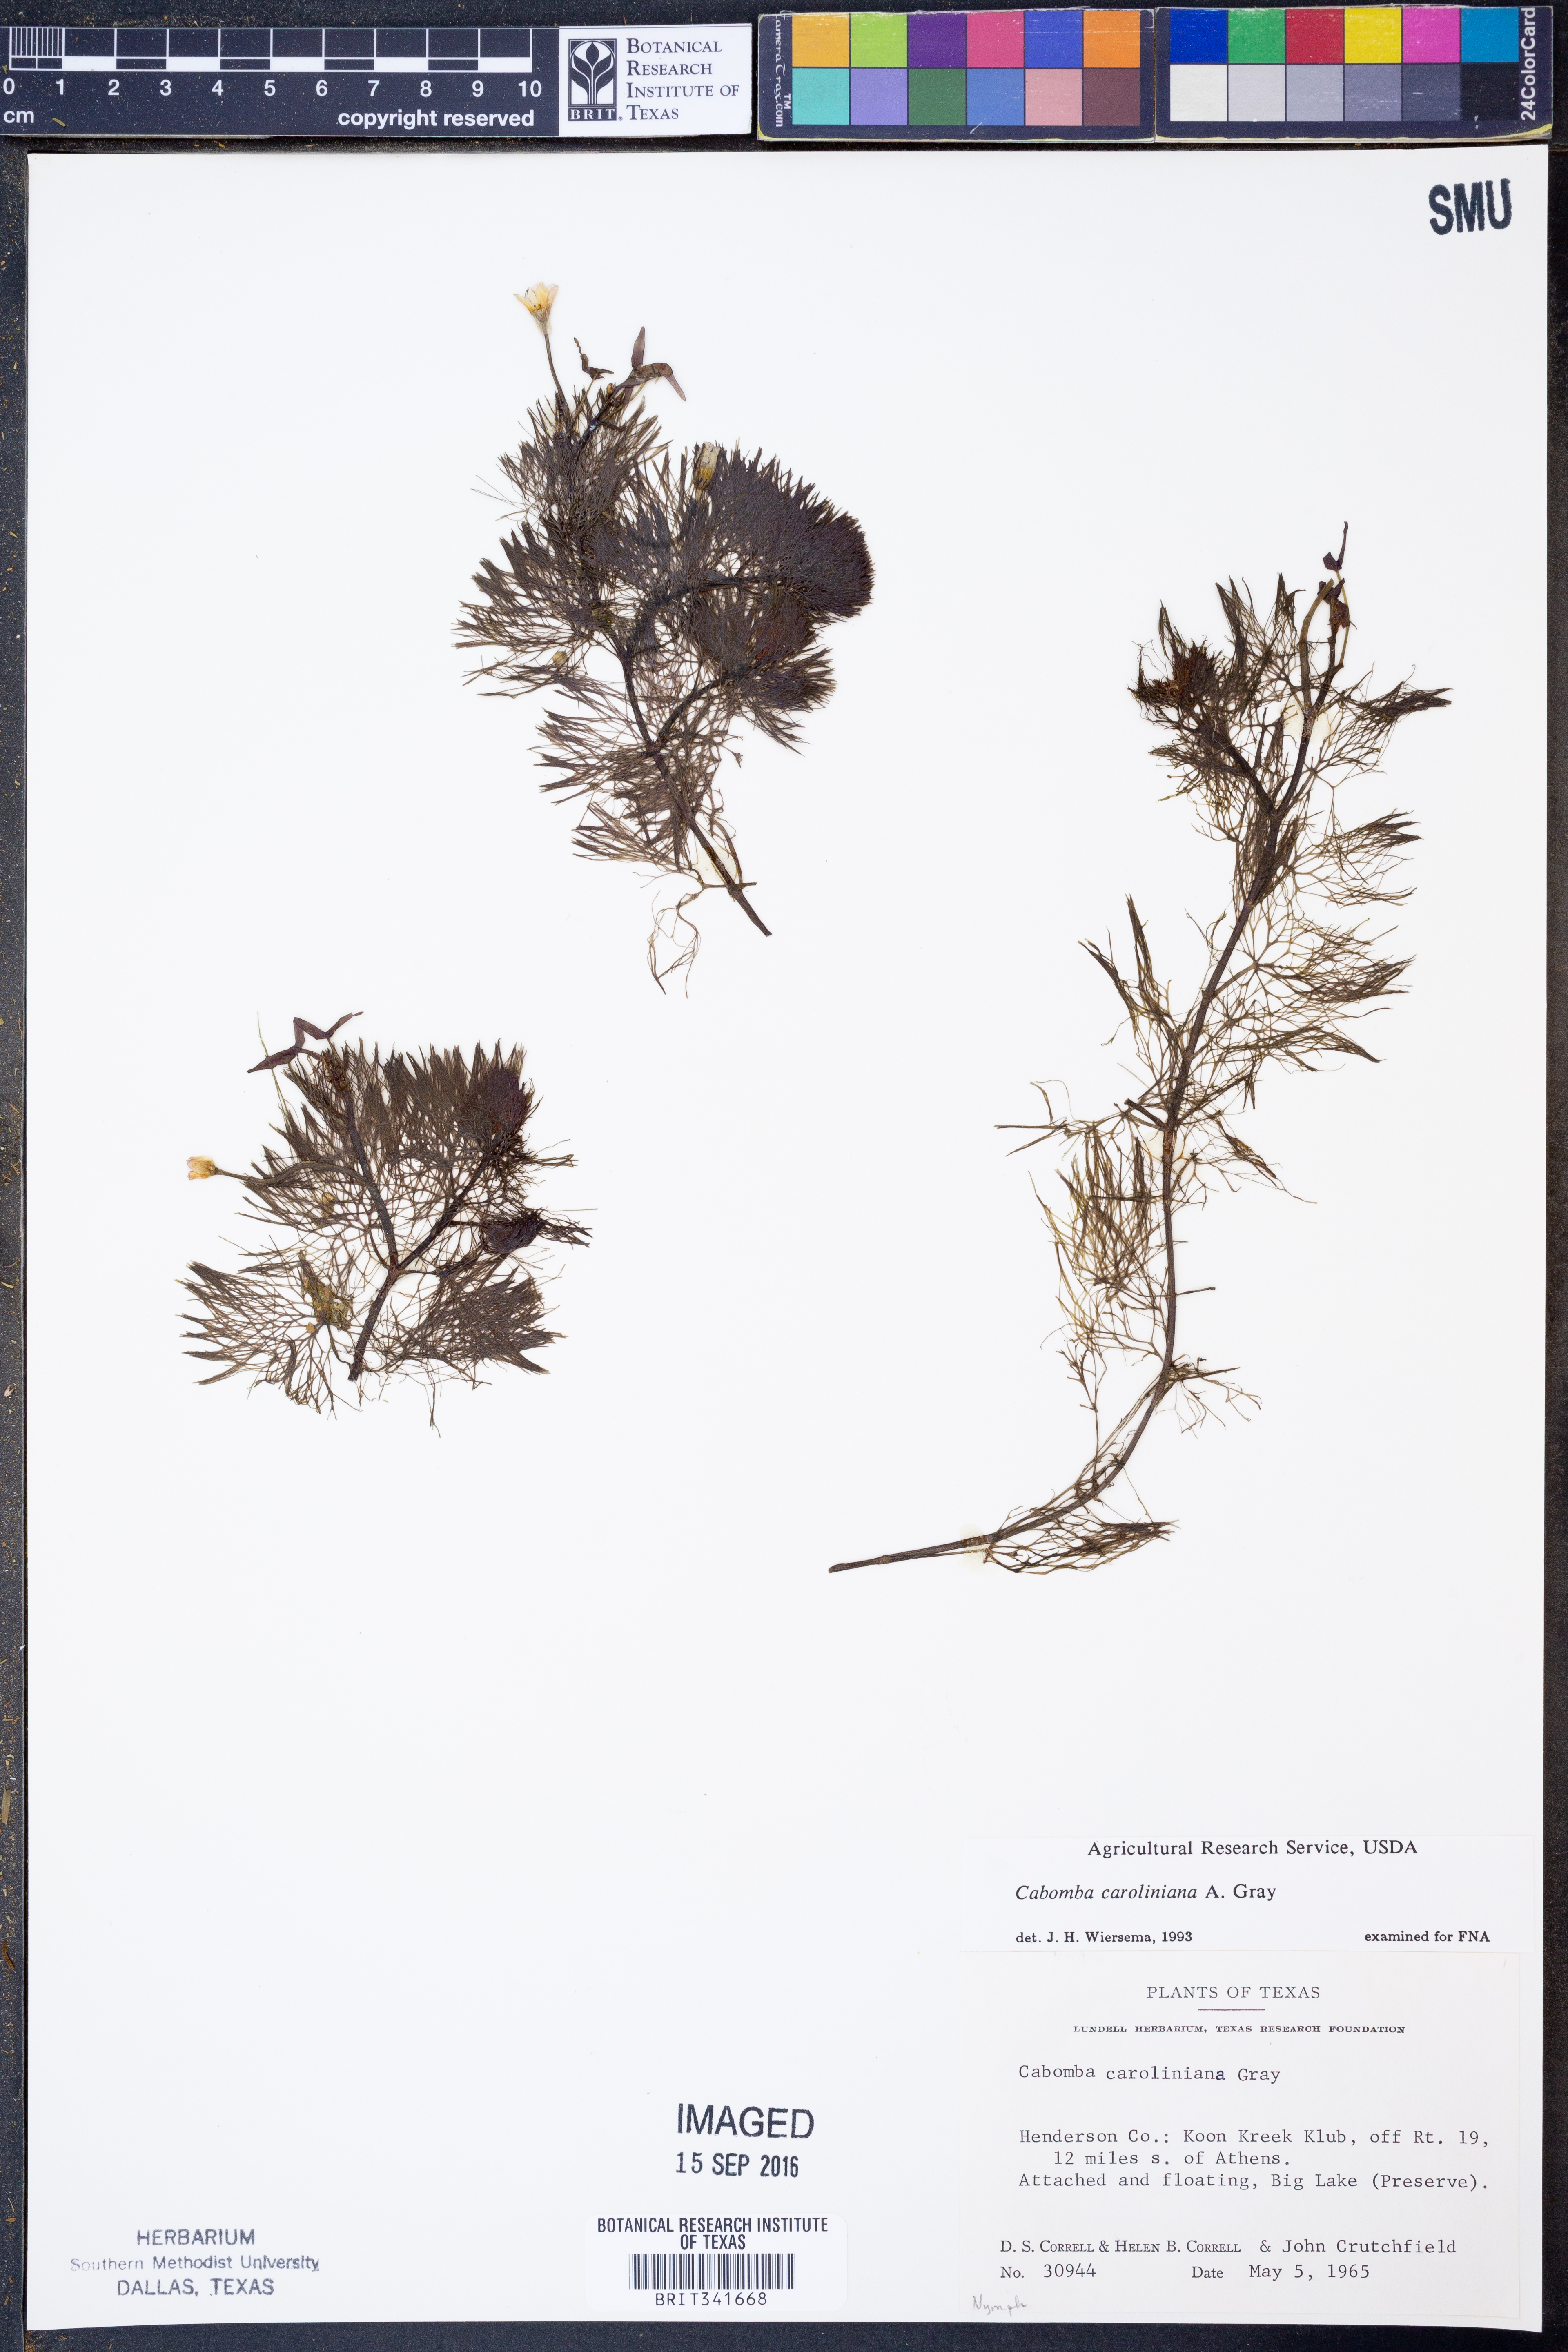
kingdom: Plantae
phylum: Tracheophyta
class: Magnoliopsida
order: Nymphaeales
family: Cabombaceae
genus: Cabomba
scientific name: Cabomba caroliniana
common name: Fanwort
